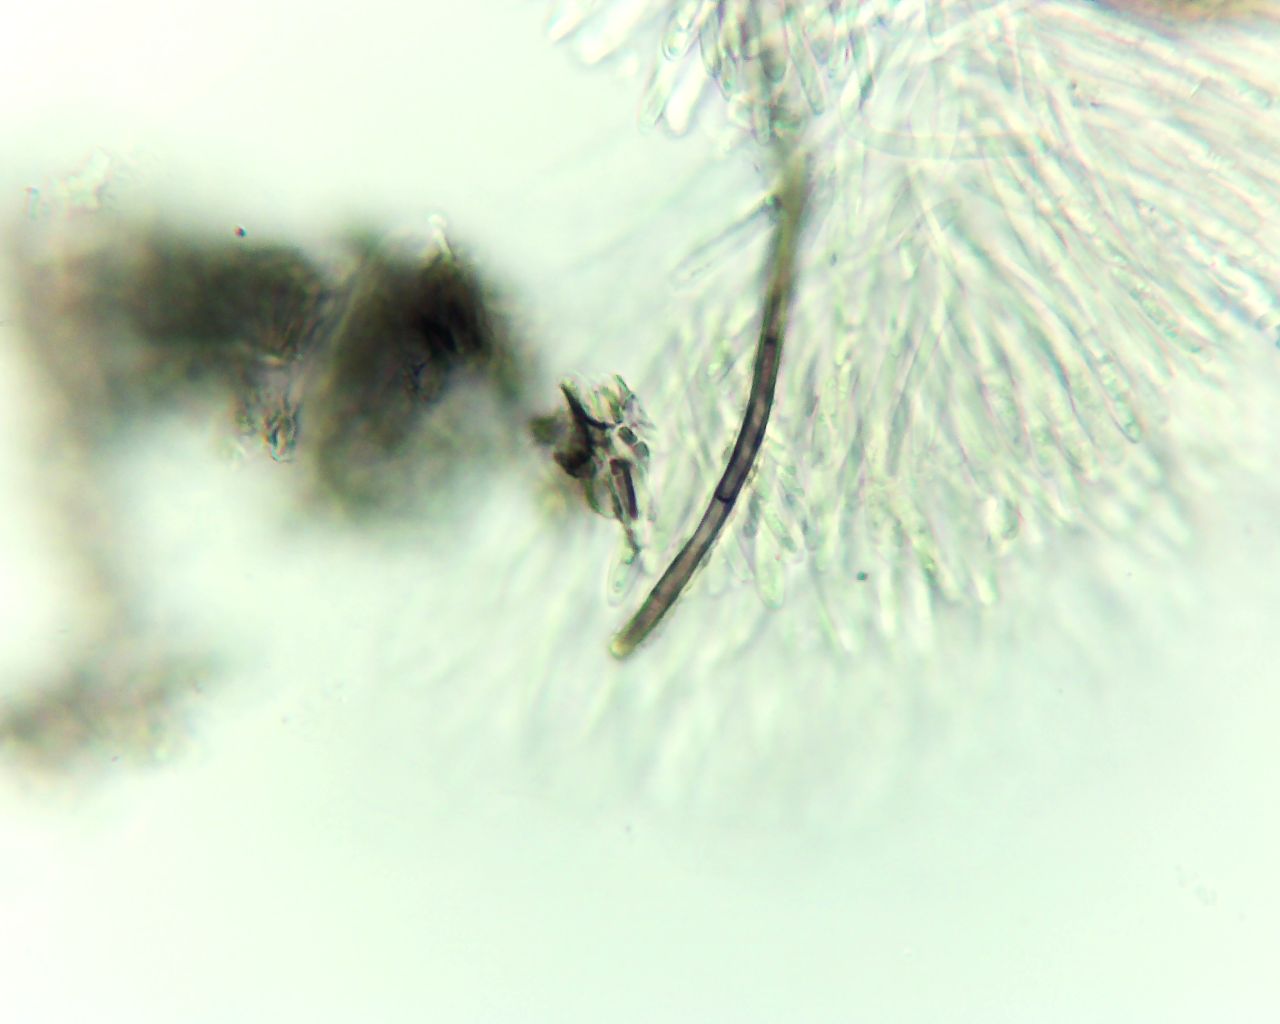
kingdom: Fungi
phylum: Ascomycota
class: Leotiomycetes
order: Helotiales
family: Mollisiaceae
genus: Mollisia
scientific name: Mollisia
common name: gråskive
